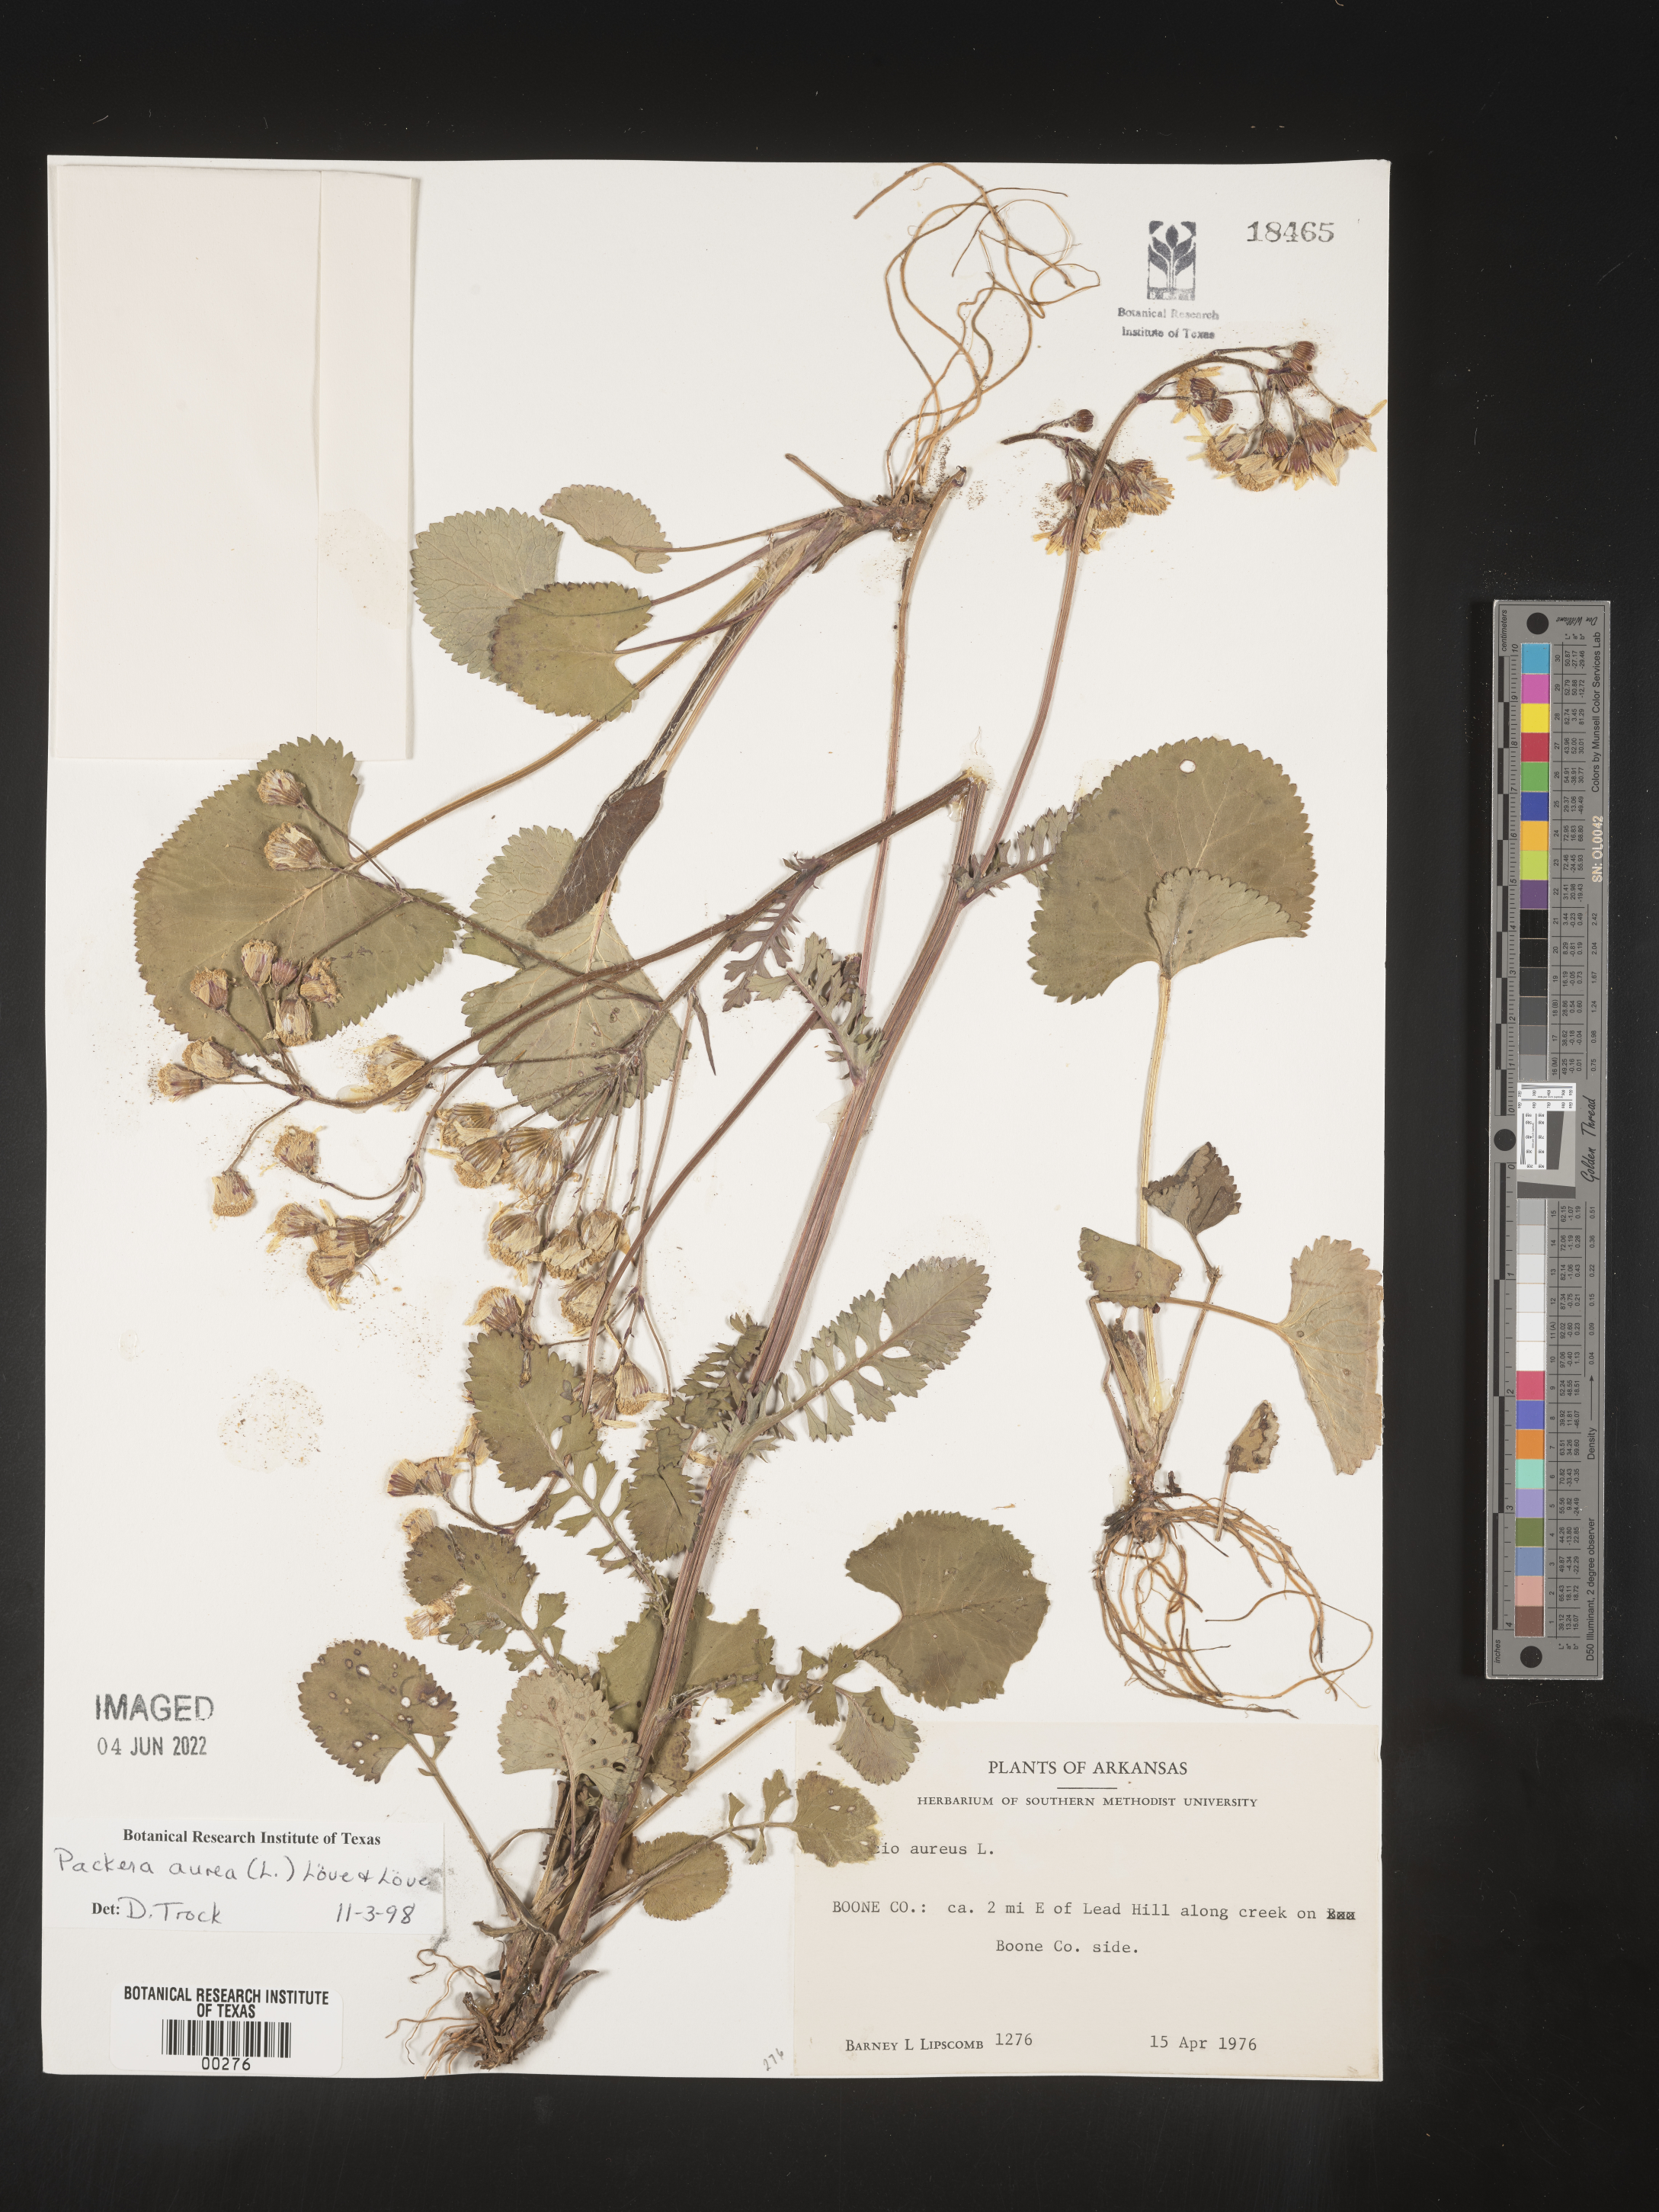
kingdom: Plantae
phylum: Tracheophyta
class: Magnoliopsida
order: Asterales
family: Asteraceae
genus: Packera
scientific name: Packera aurea
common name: Golden groundsel
